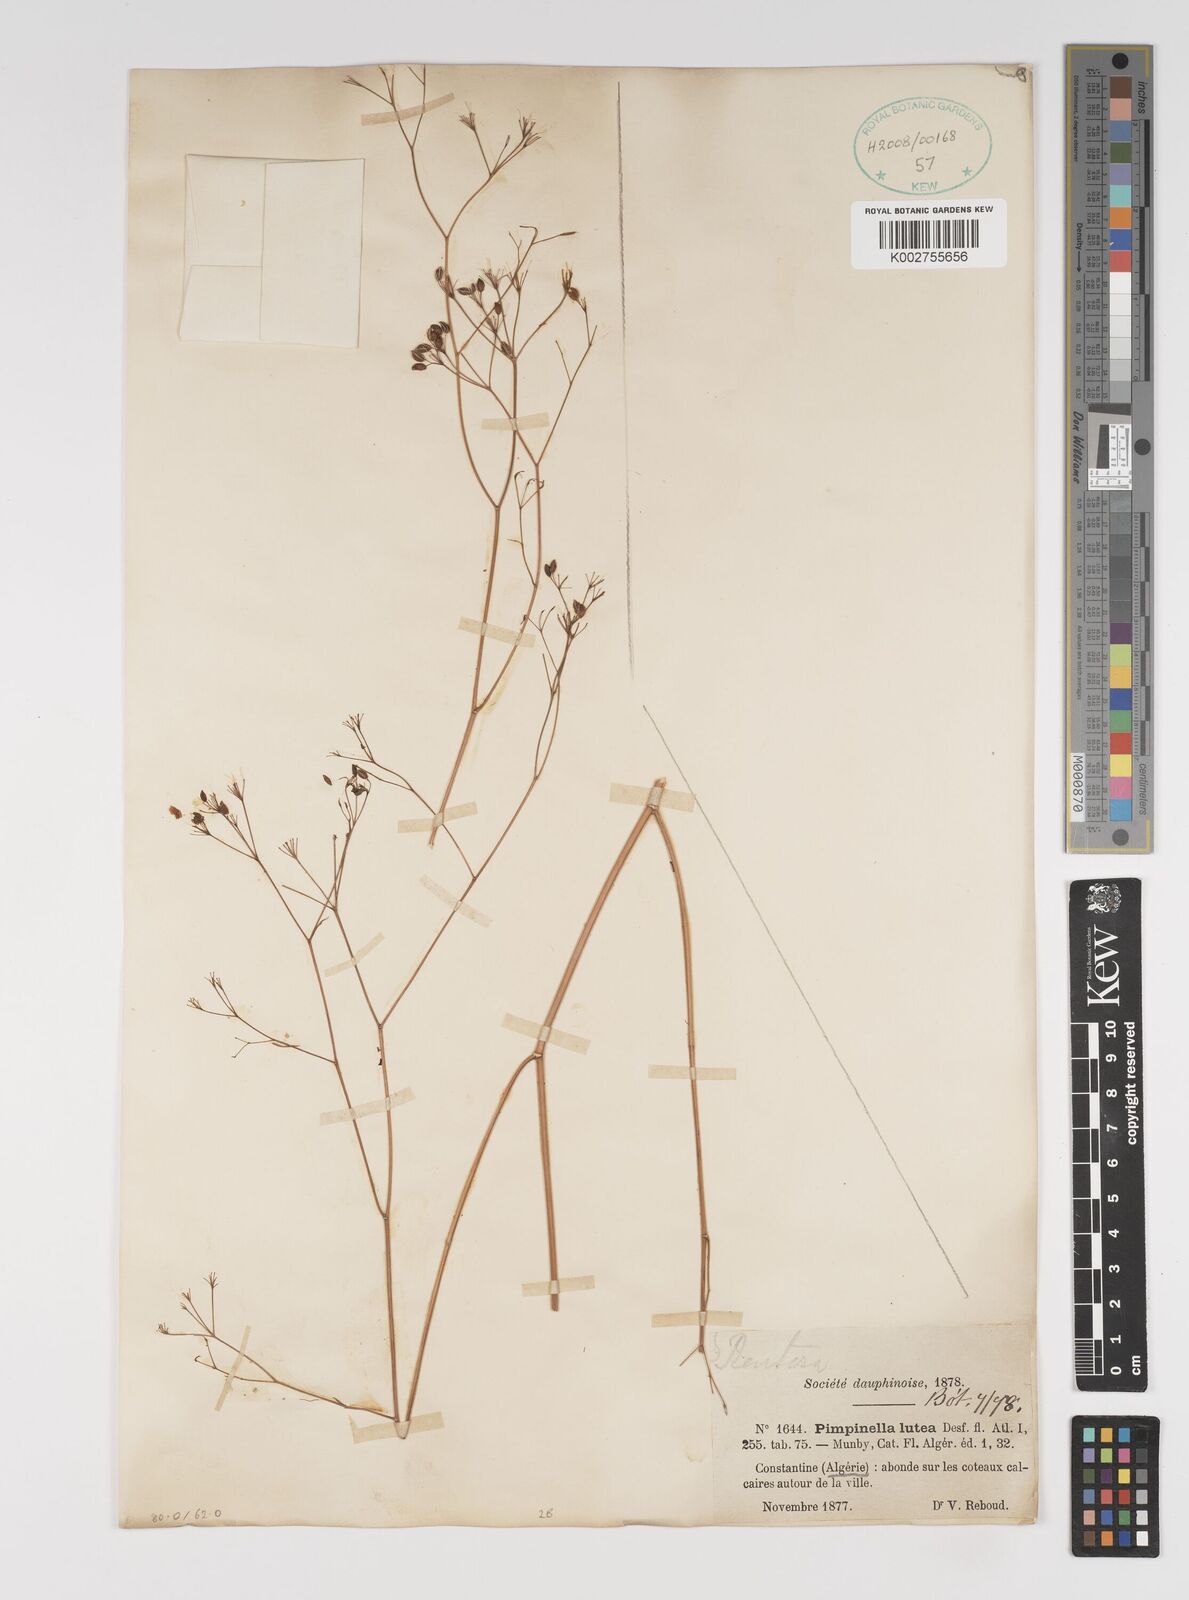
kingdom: Plantae
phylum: Tracheophyta
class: Magnoliopsida
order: Apiales
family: Apiaceae
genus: Pimpinella
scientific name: Pimpinella
